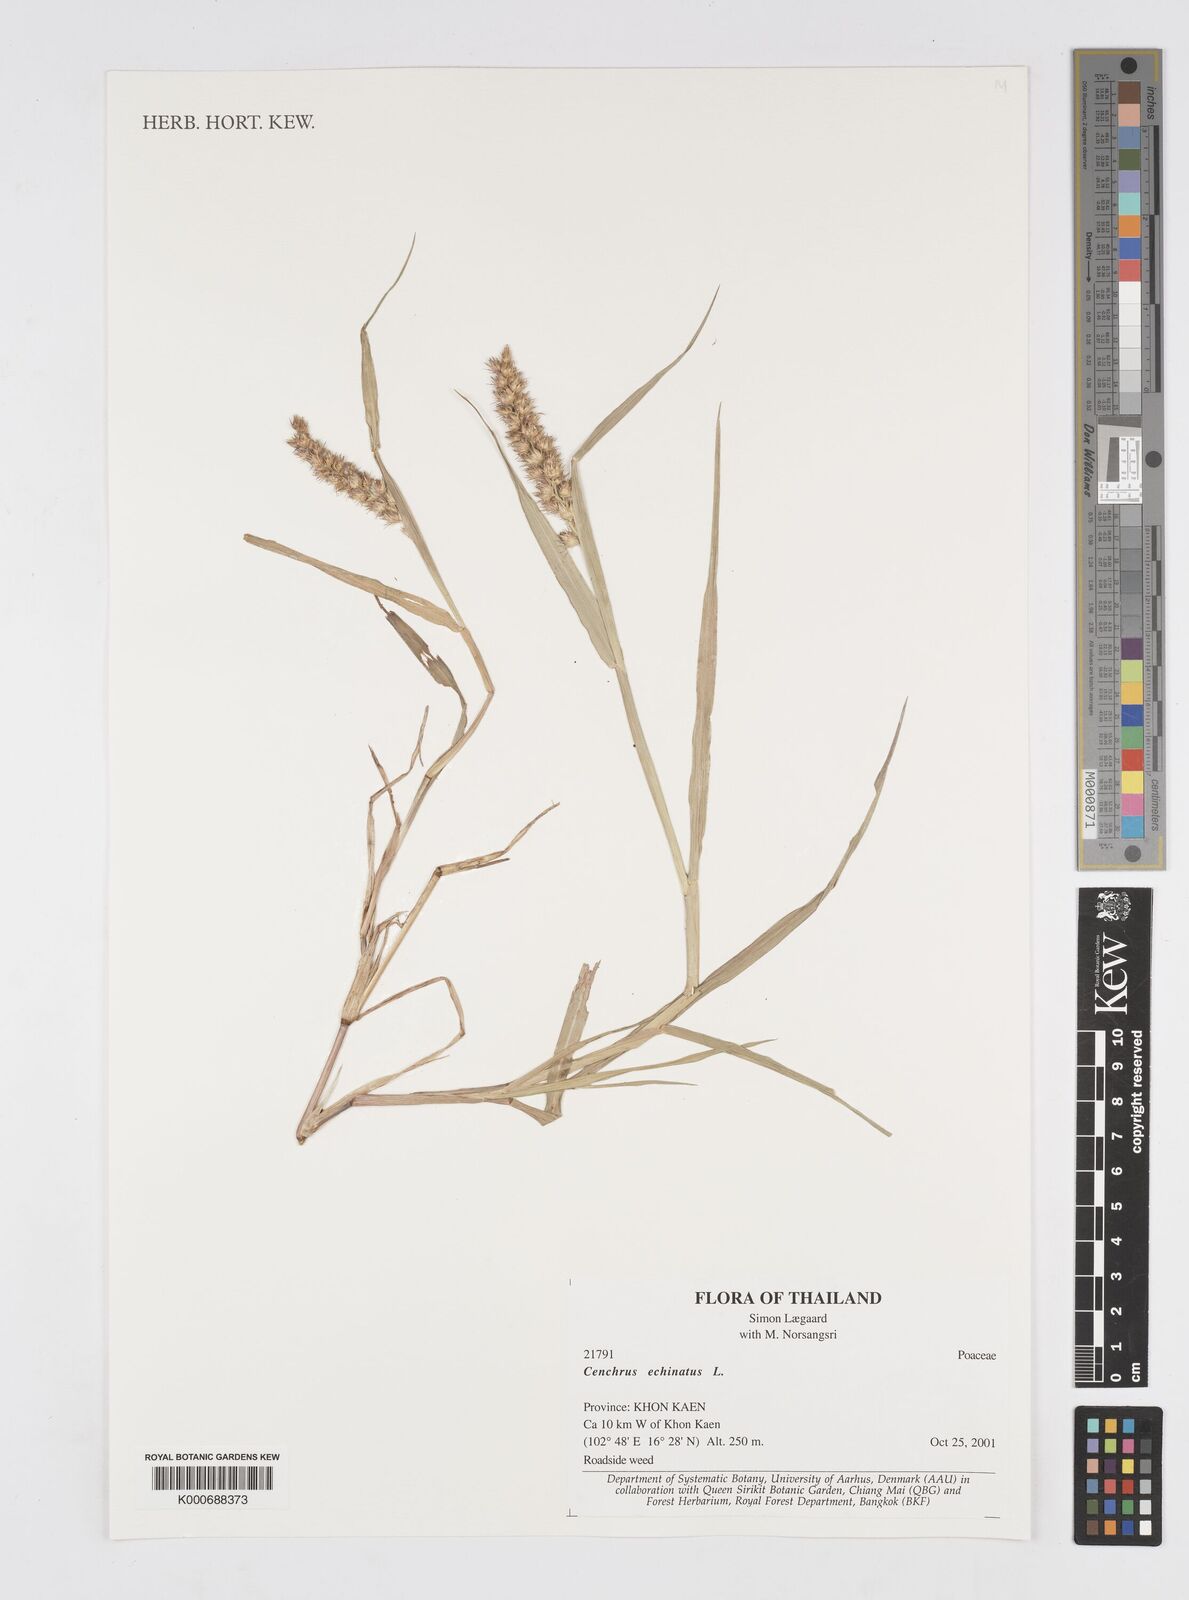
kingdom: Plantae
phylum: Tracheophyta
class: Liliopsida
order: Poales
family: Poaceae
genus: Cenchrus
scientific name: Cenchrus echinatus
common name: Southern sandbur
